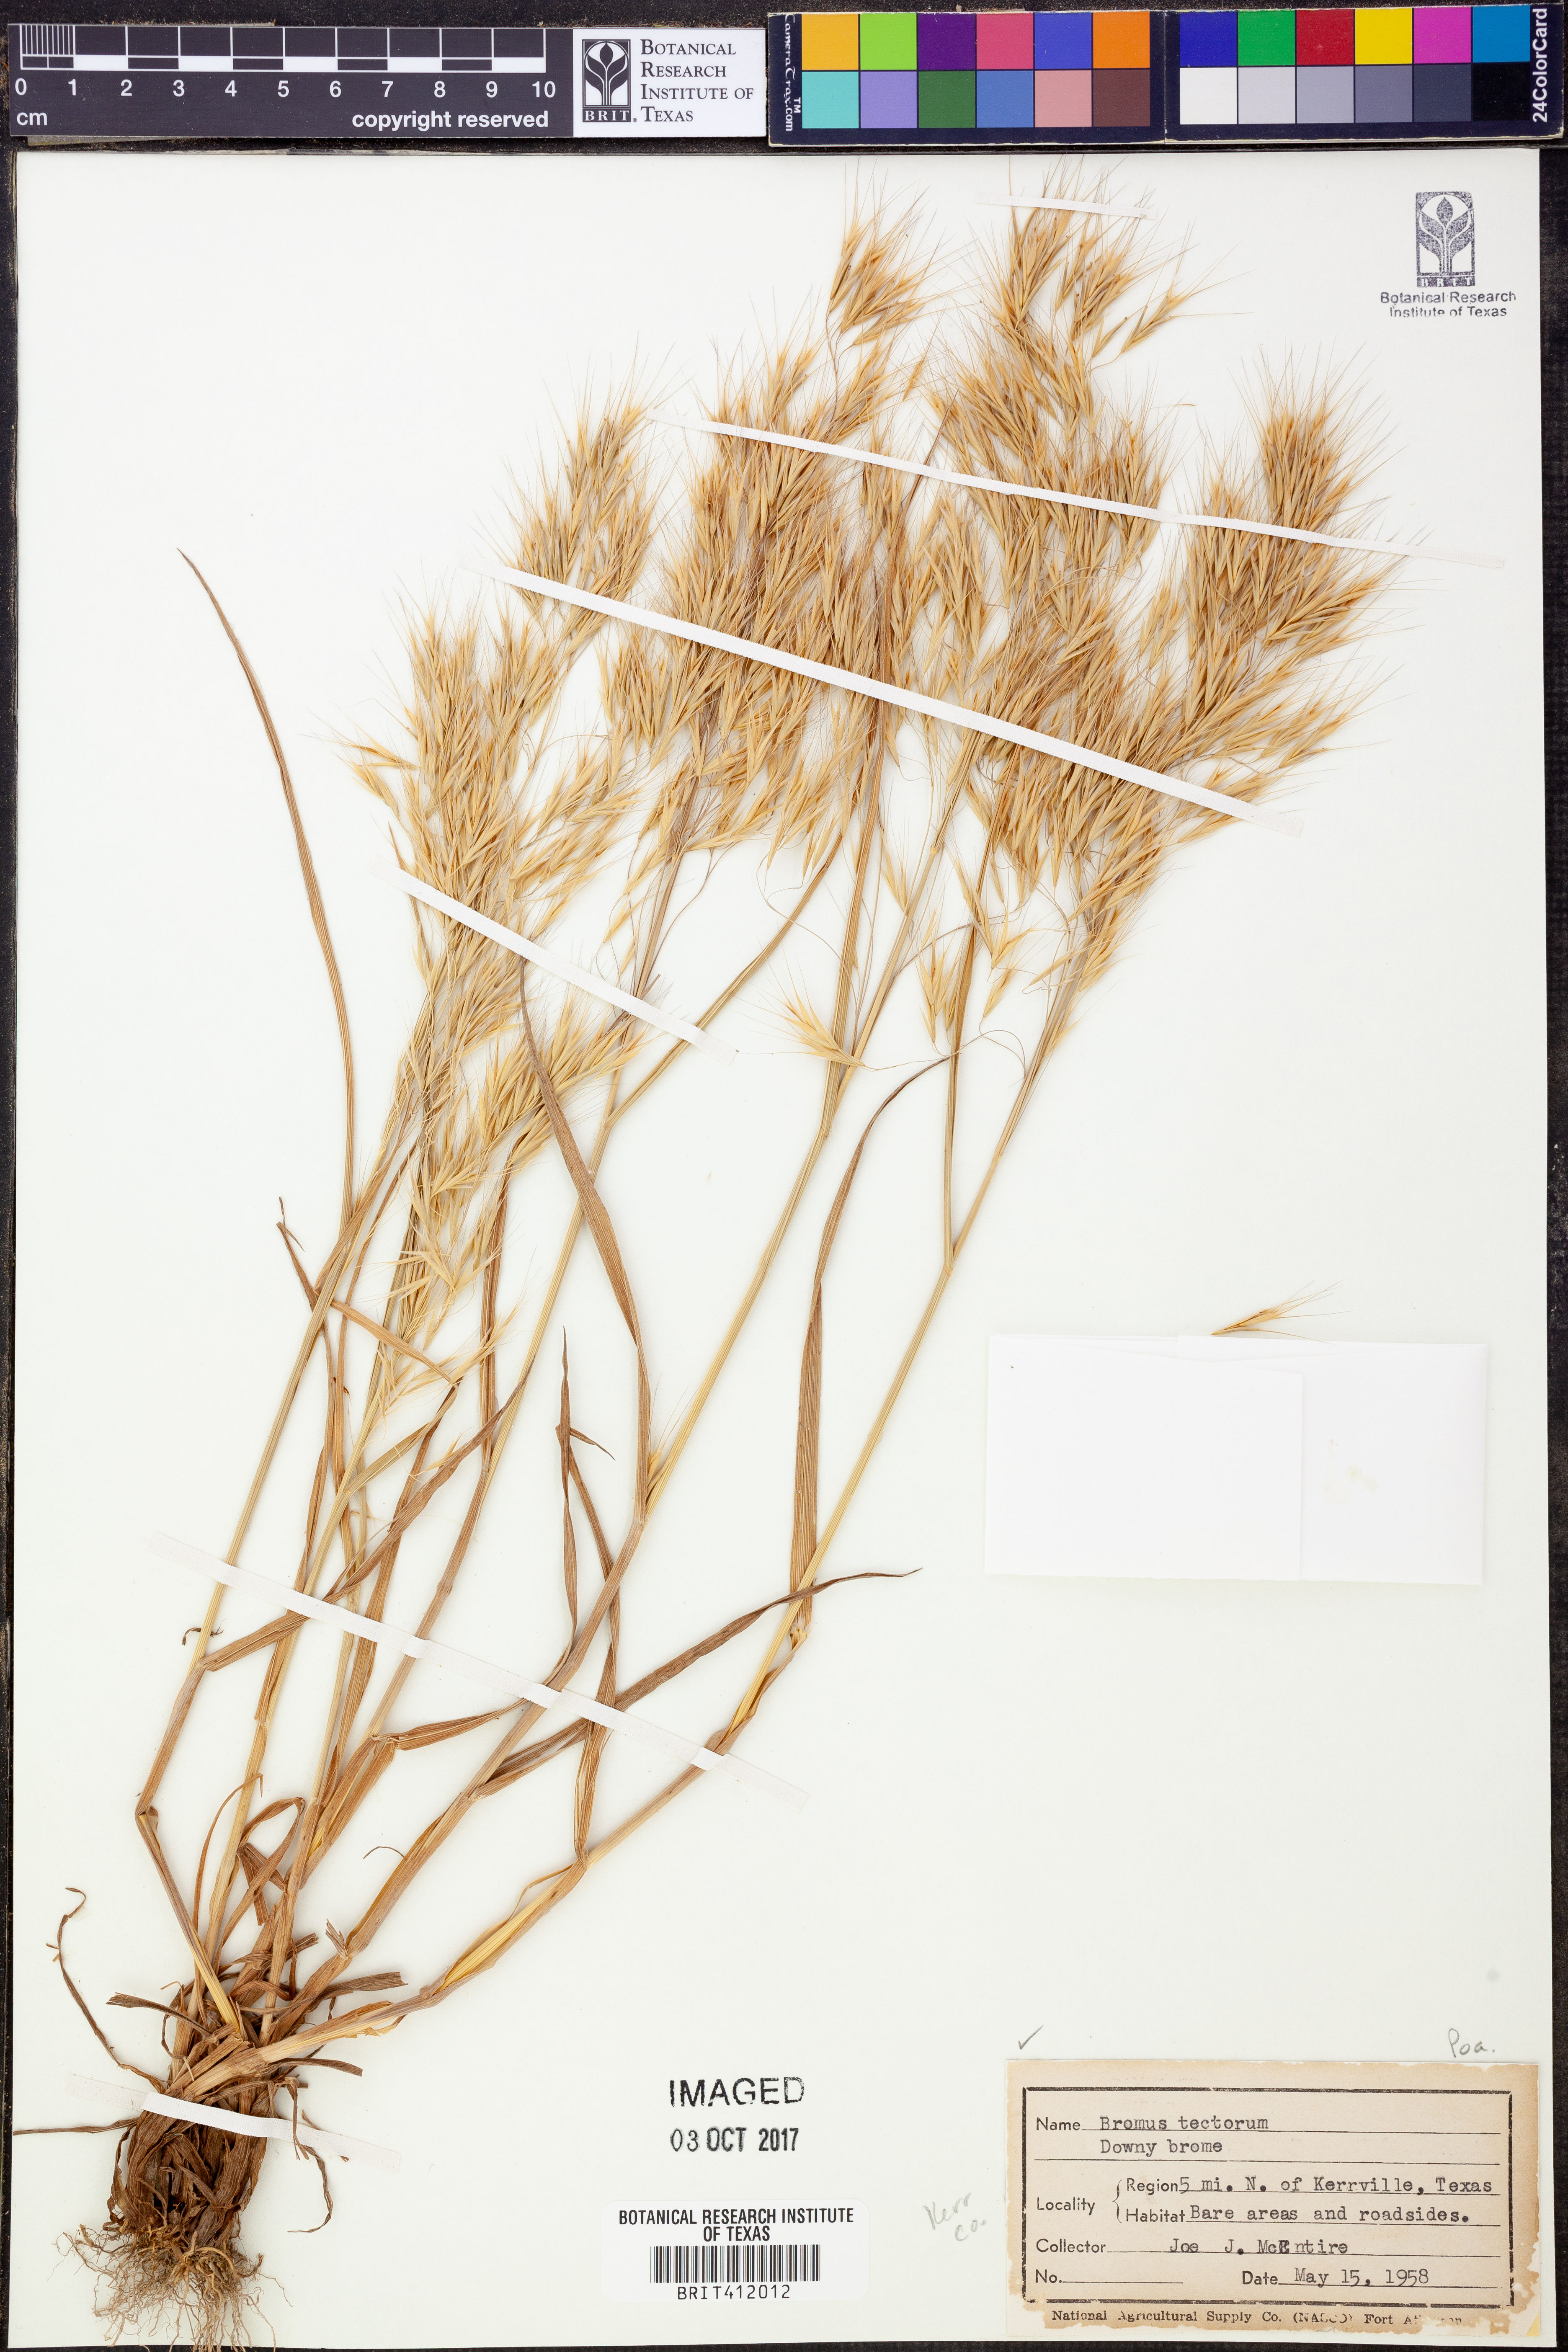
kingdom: Plantae
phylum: Tracheophyta
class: Liliopsida
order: Poales
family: Poaceae
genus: Bromus
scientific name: Bromus tectorum
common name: Cheatgrass
